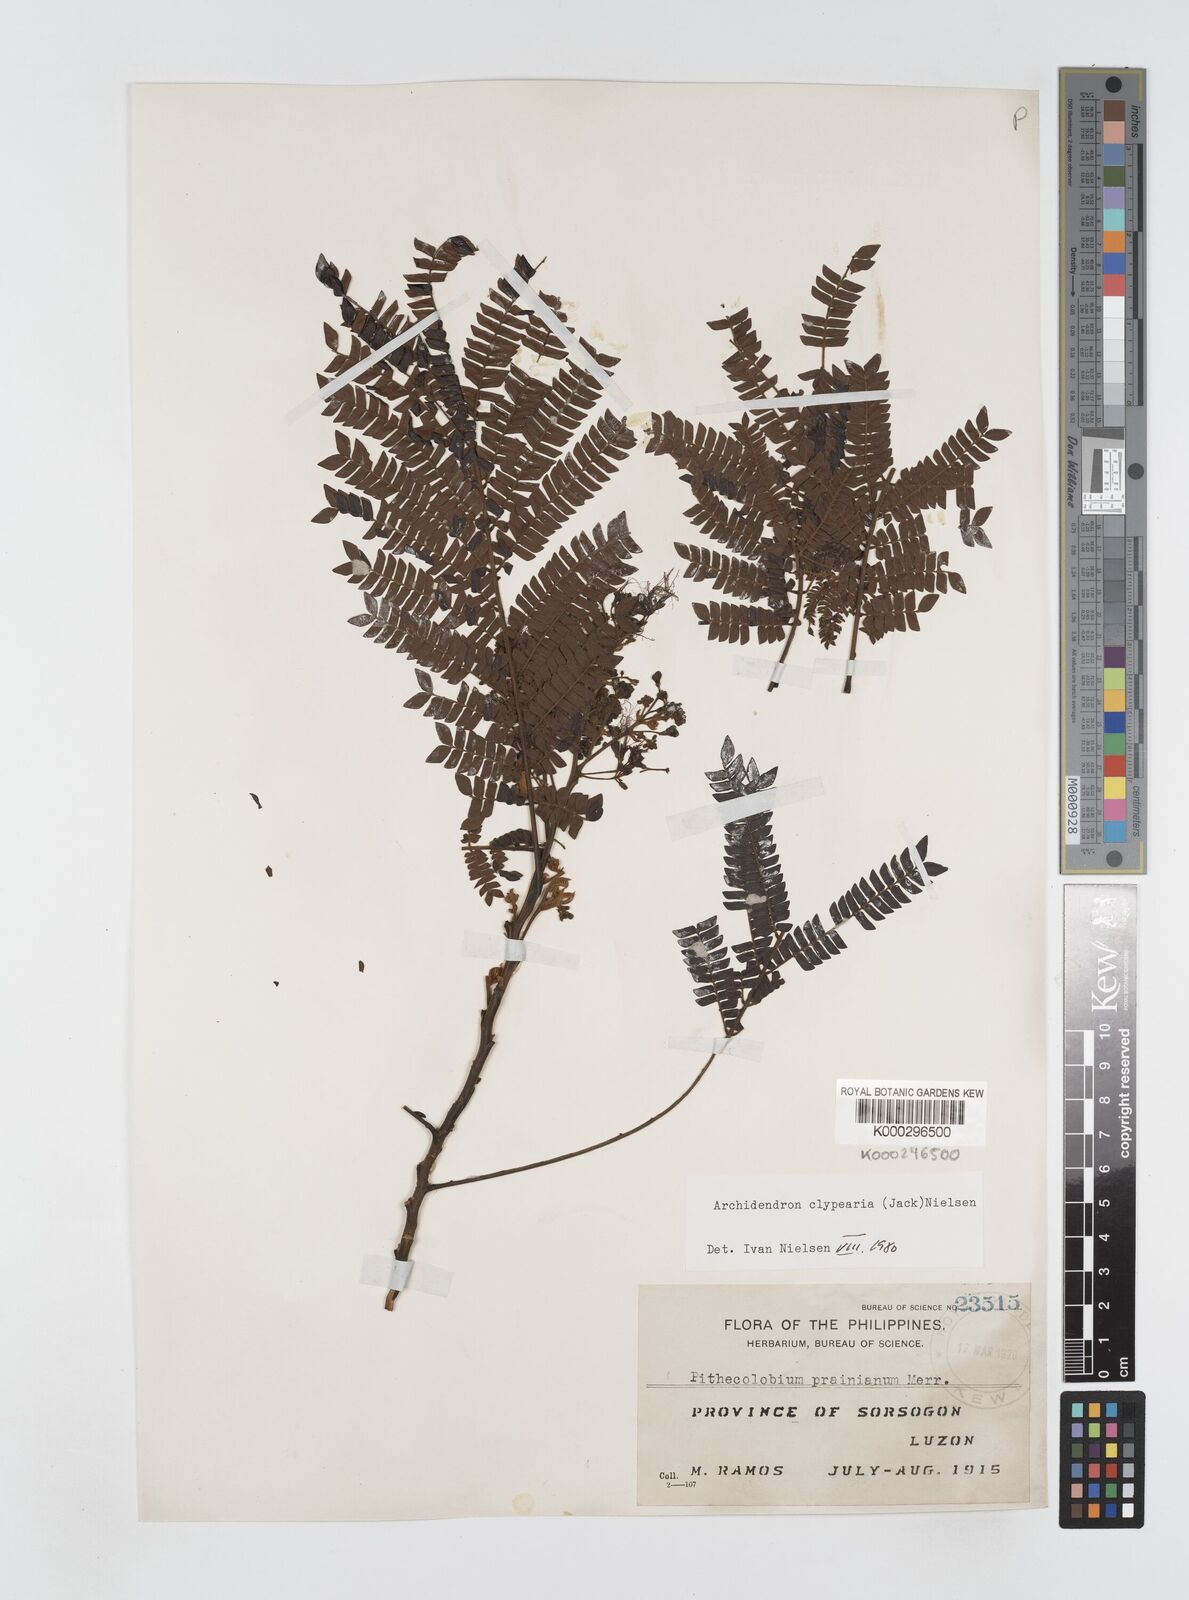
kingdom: Plantae
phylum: Tracheophyta
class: Magnoliopsida
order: Fabales
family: Fabaceae
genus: Archidendron
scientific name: Archidendron clypearia
